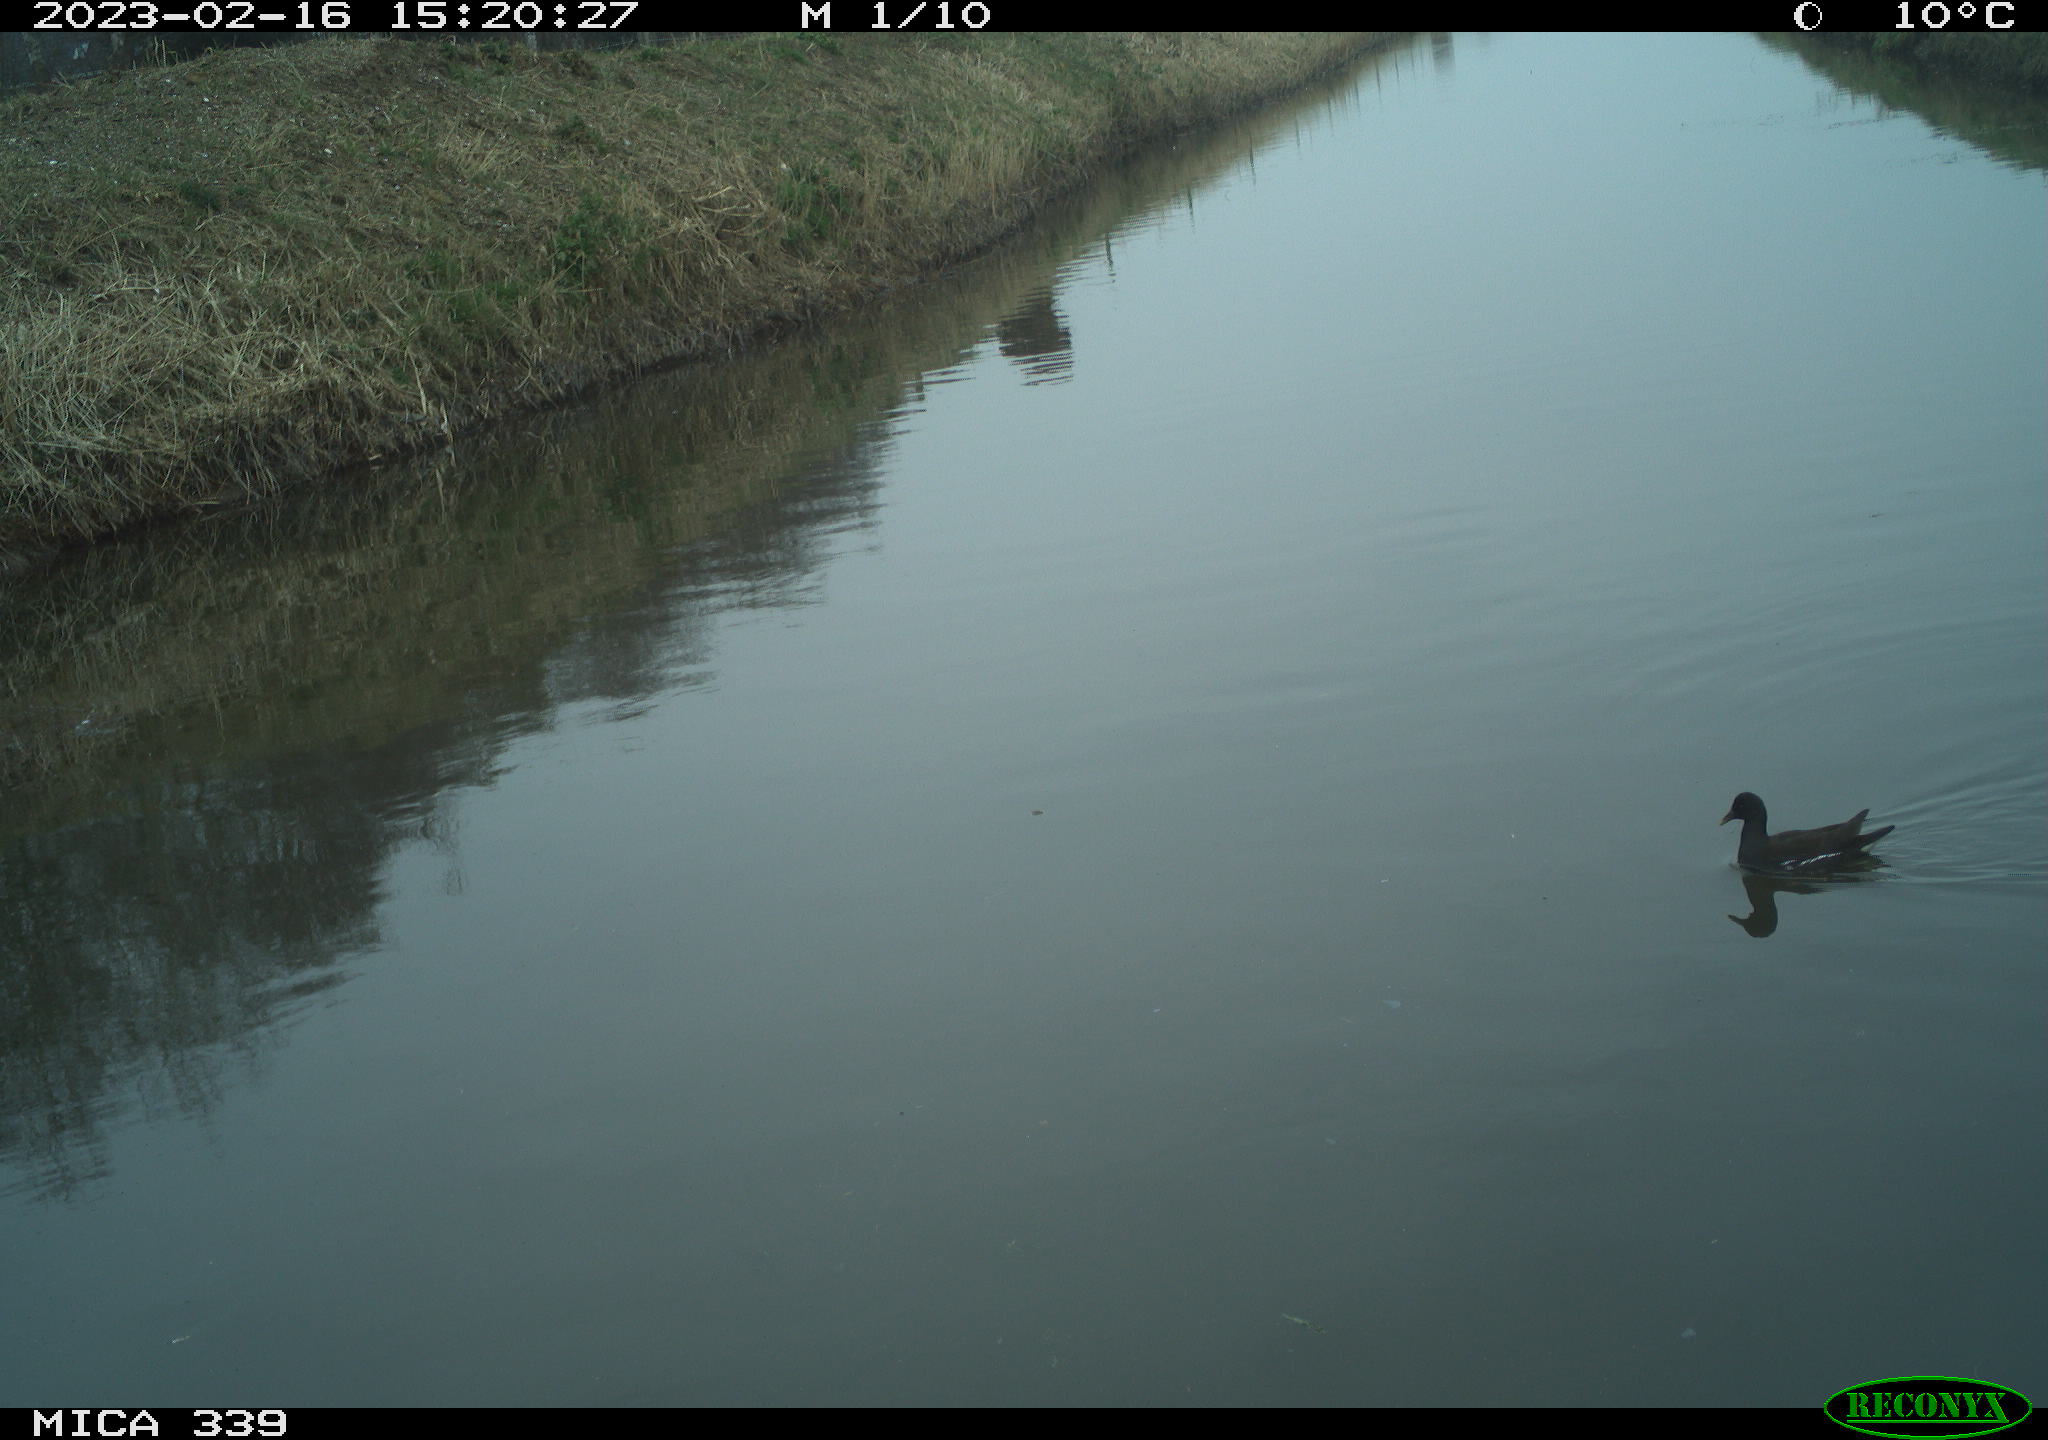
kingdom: Animalia
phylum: Chordata
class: Aves
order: Gruiformes
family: Rallidae
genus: Gallinula
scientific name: Gallinula chloropus
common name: Common moorhen
